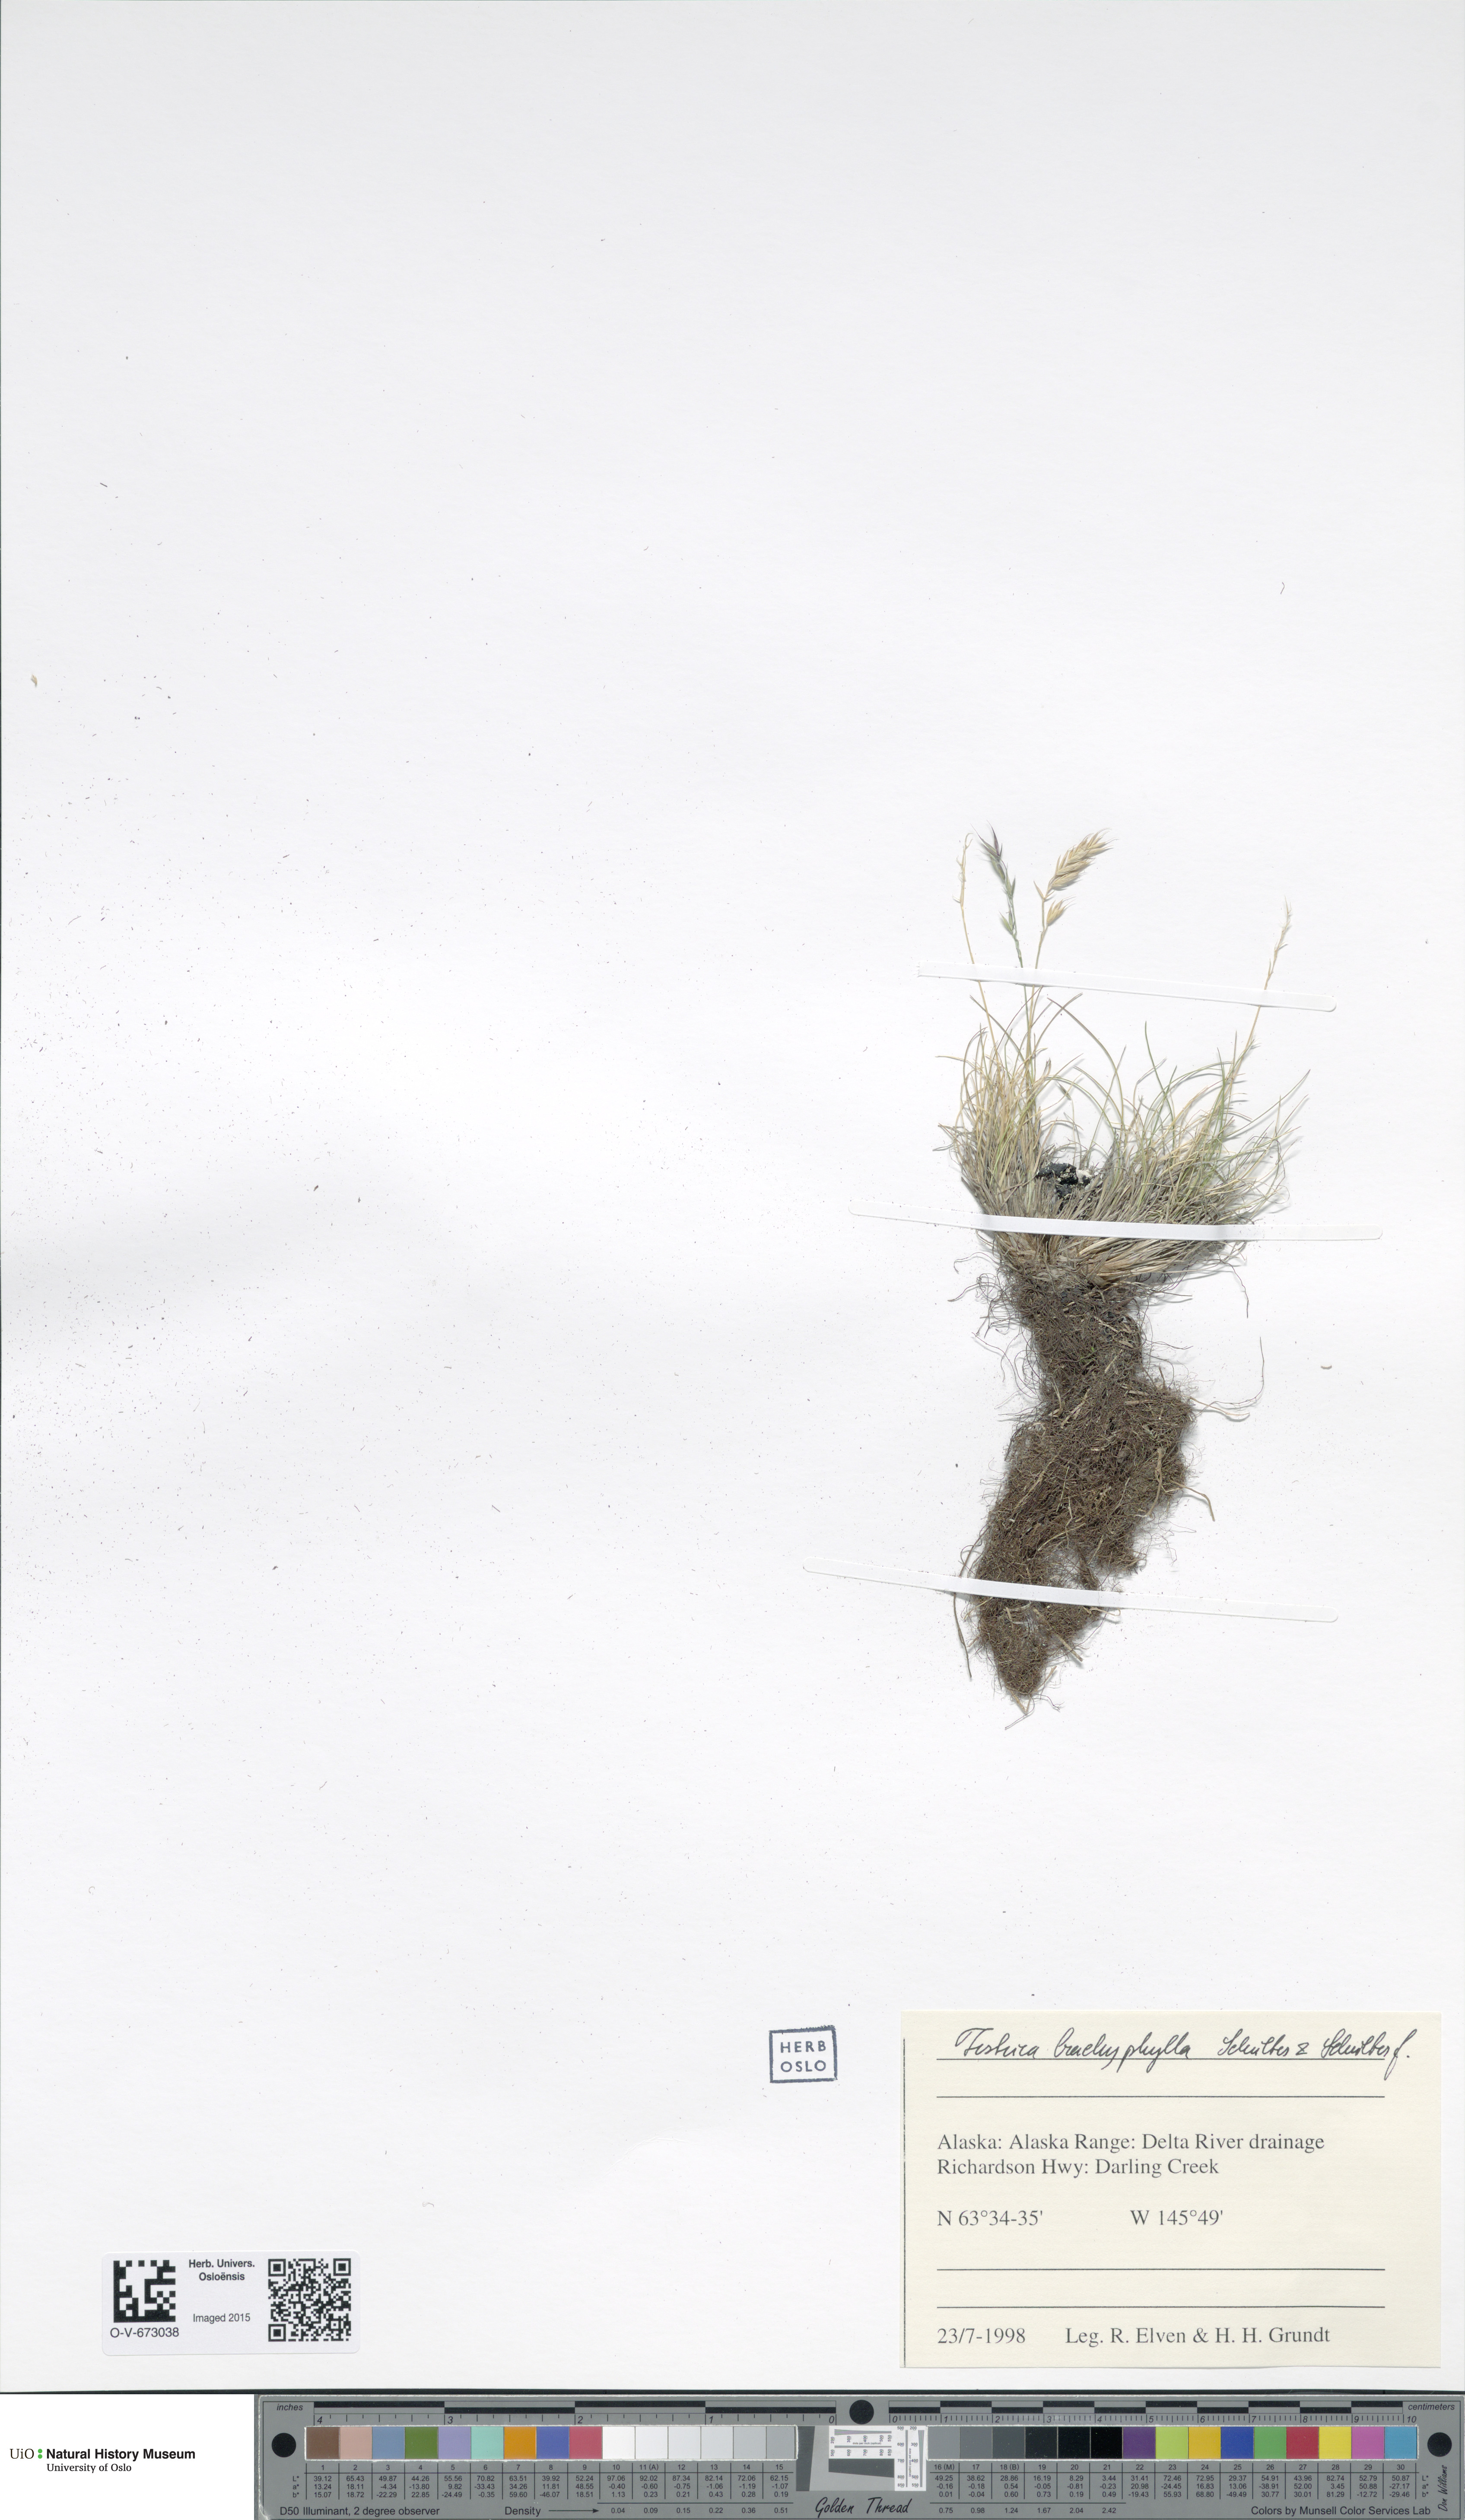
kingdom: Plantae
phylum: Tracheophyta
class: Liliopsida
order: Poales
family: Poaceae
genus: Festuca
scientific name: Festuca brachyphylla
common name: Alpine fescue
